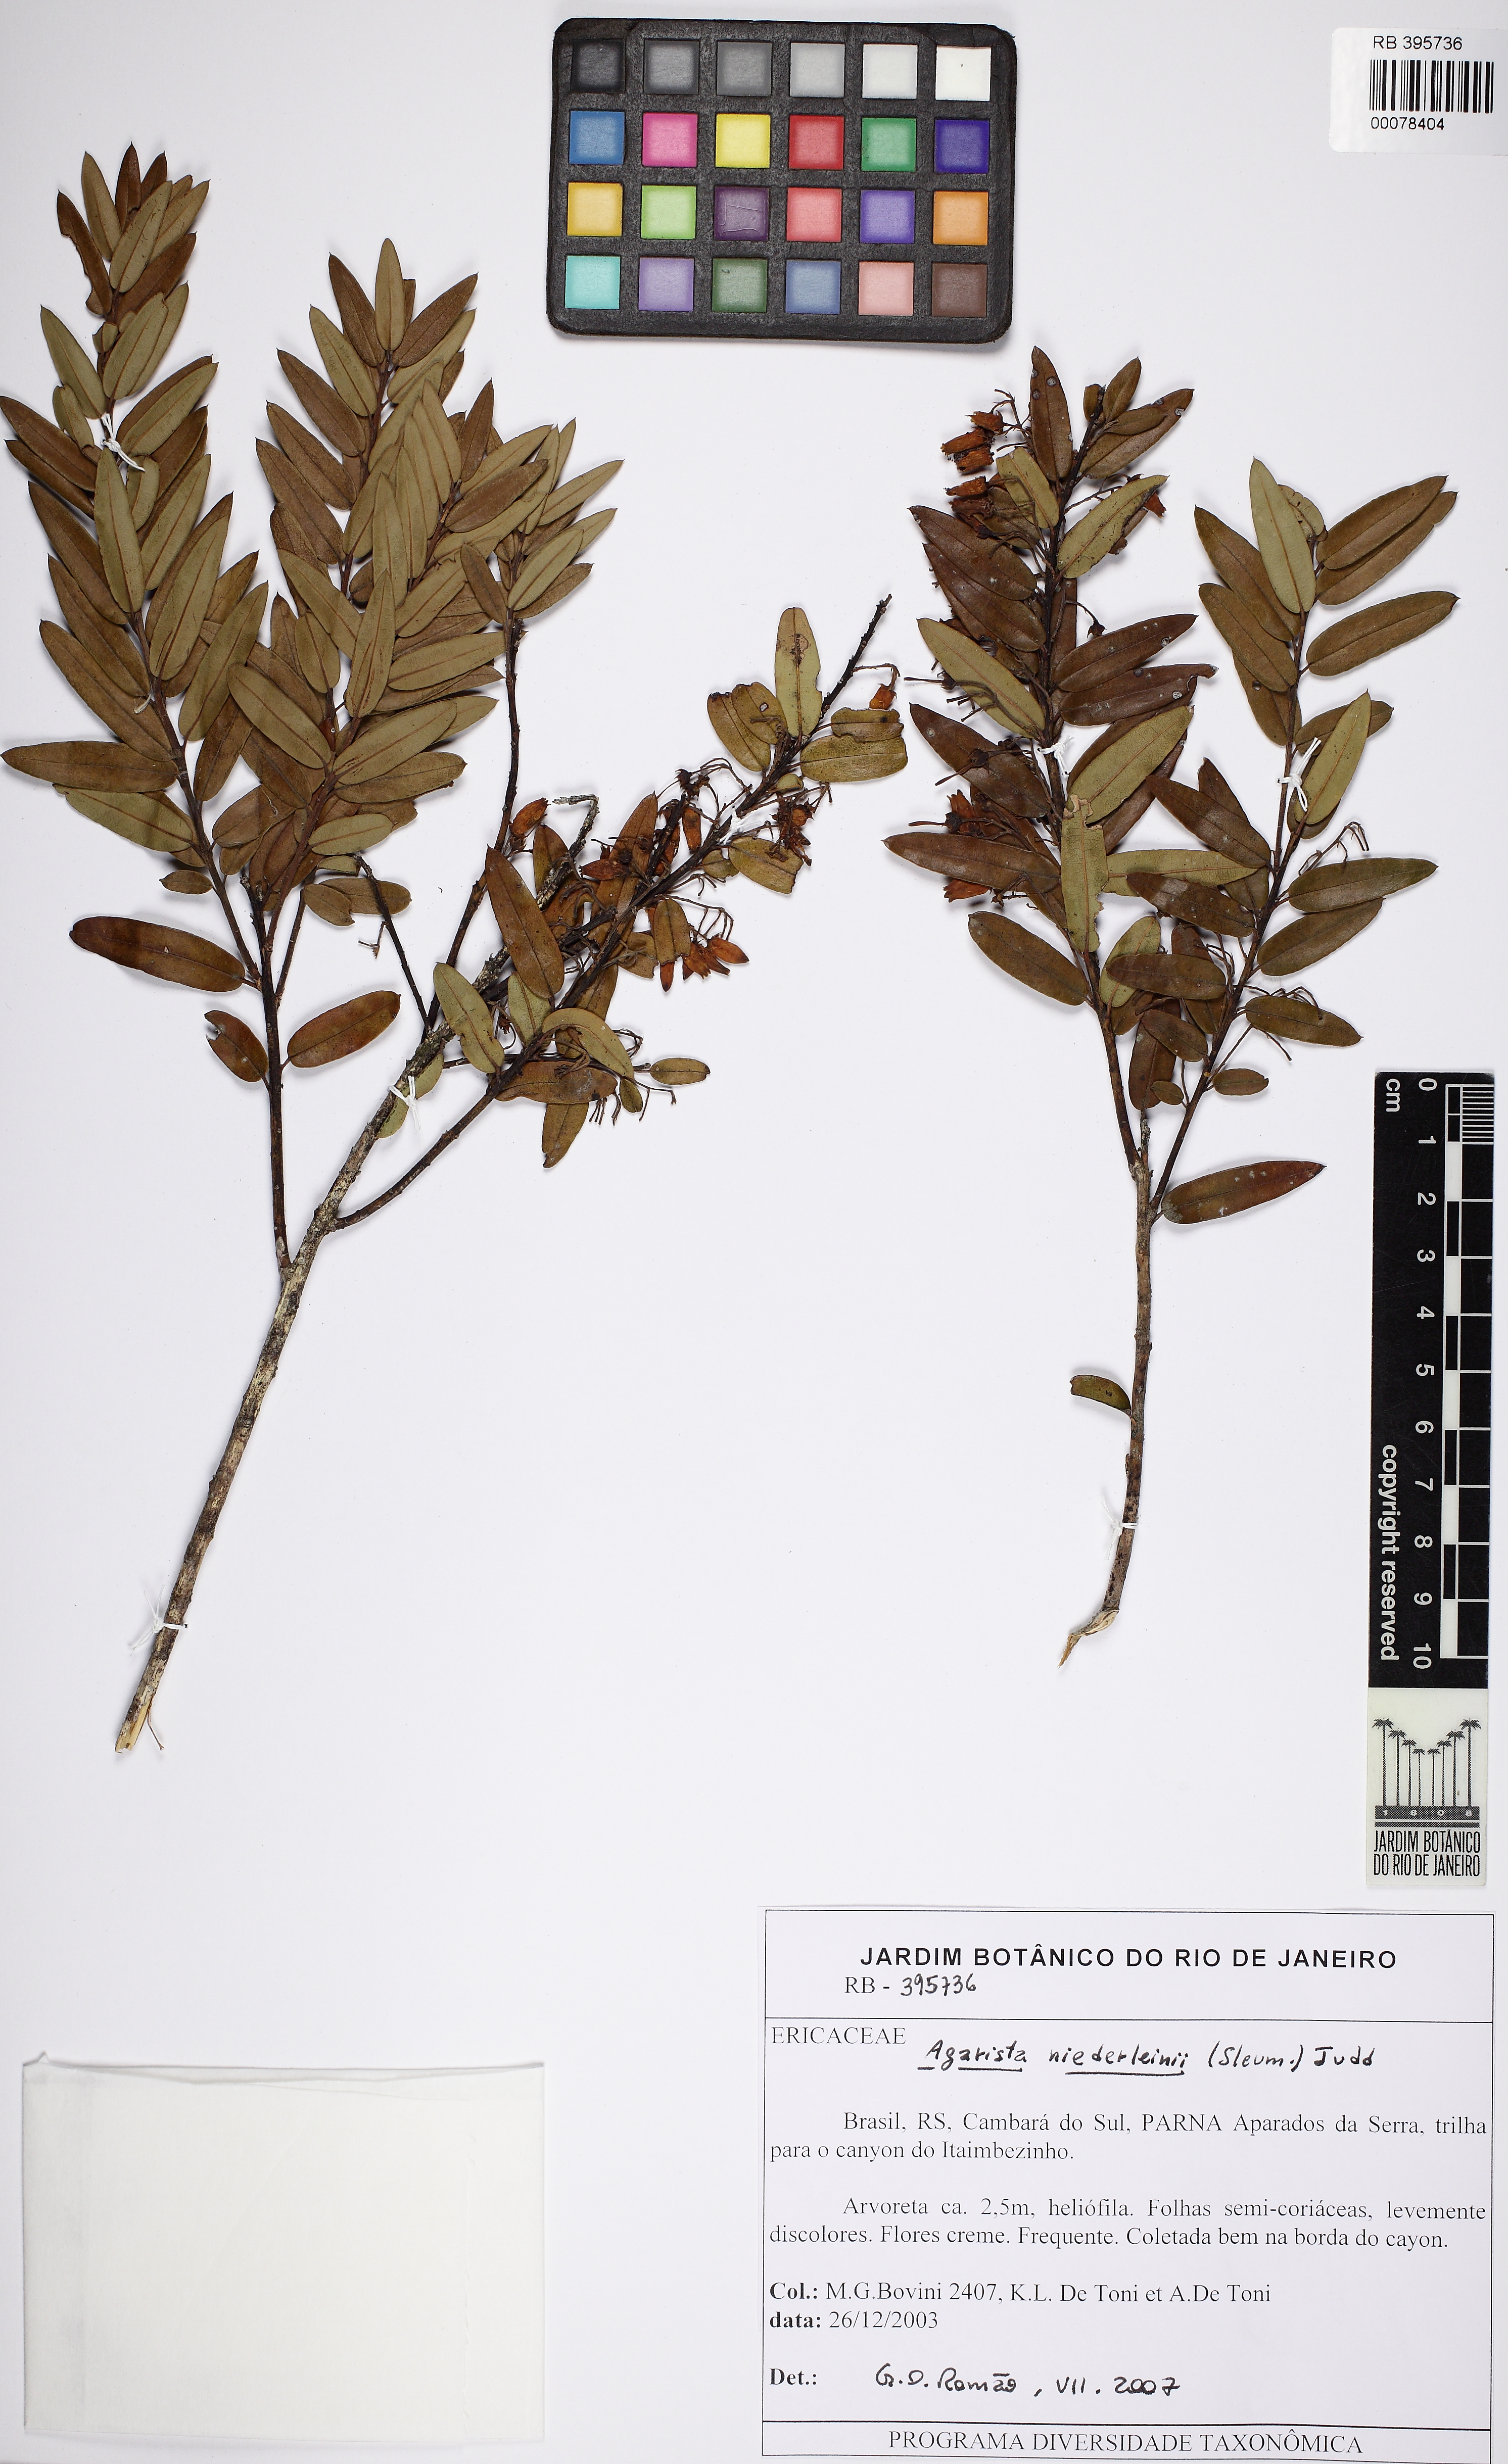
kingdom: Plantae
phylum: Tracheophyta
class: Magnoliopsida
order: Ericales
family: Ericaceae
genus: Agarista
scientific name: Agarista niederleinii
